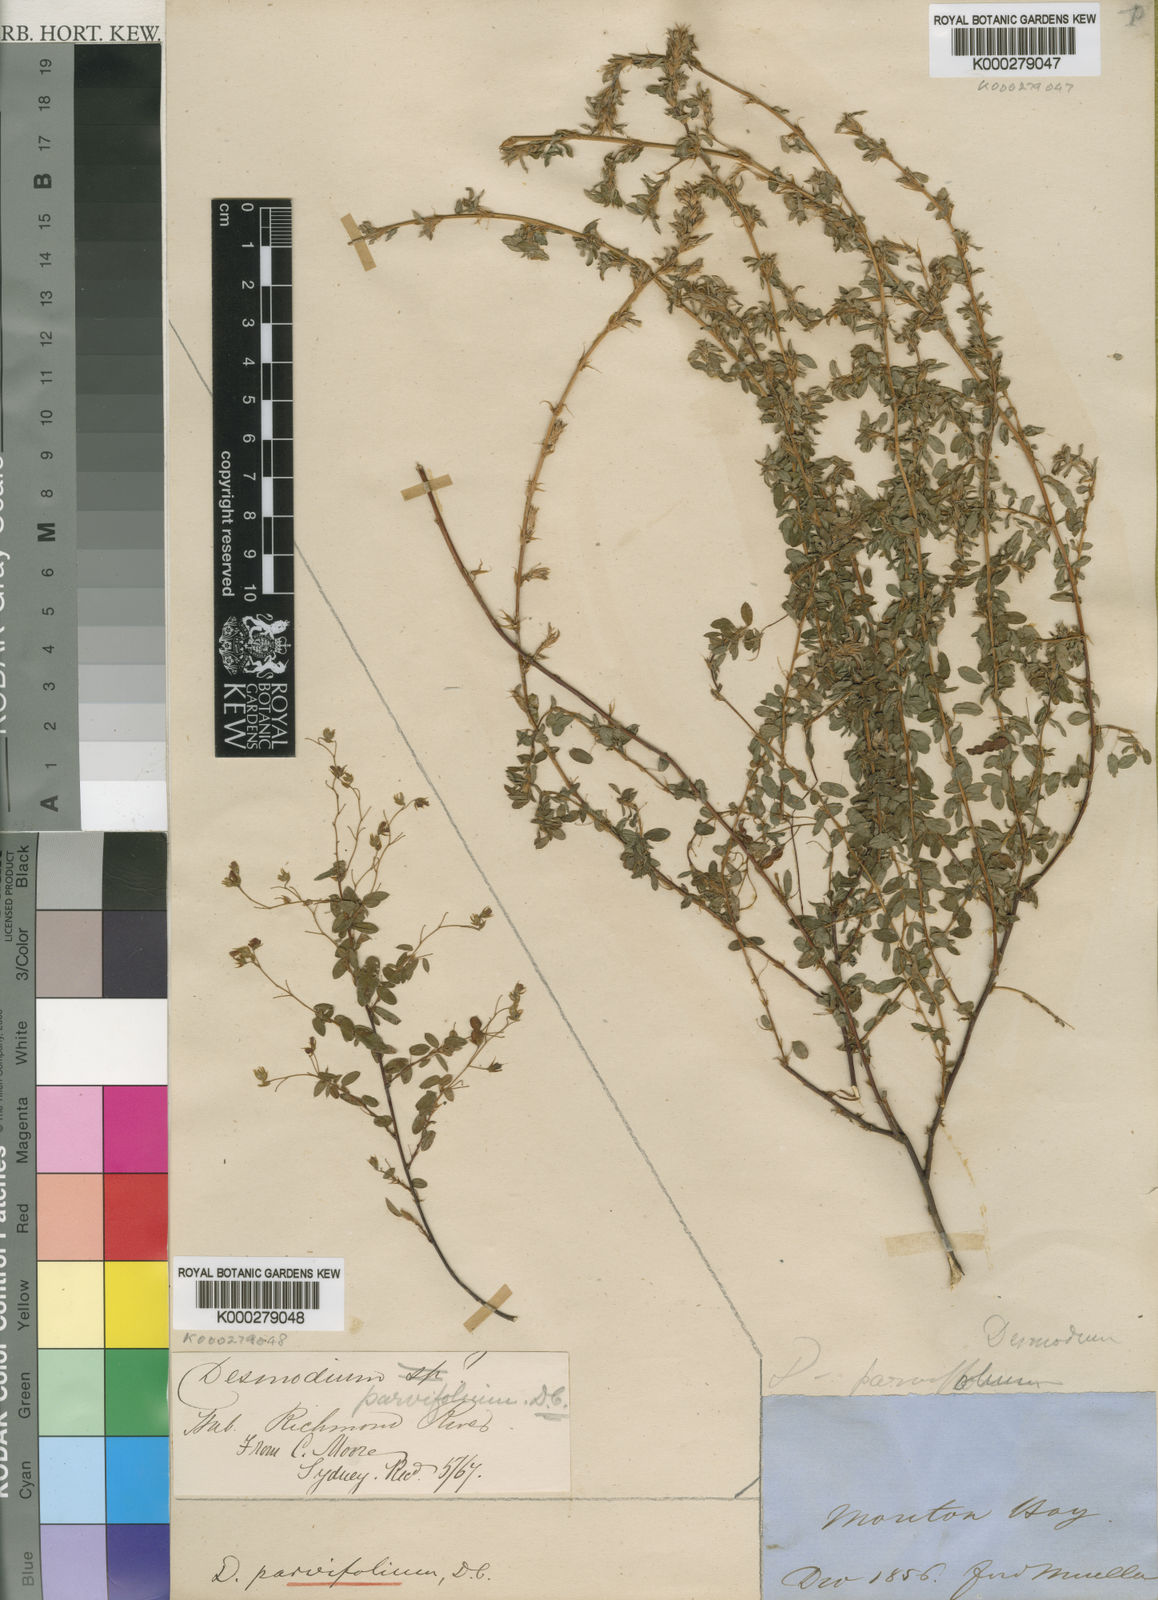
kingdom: Plantae
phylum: Tracheophyta
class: Magnoliopsida
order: Fabales
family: Fabaceae
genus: Leptodesmia
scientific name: Leptodesmia microphylla
